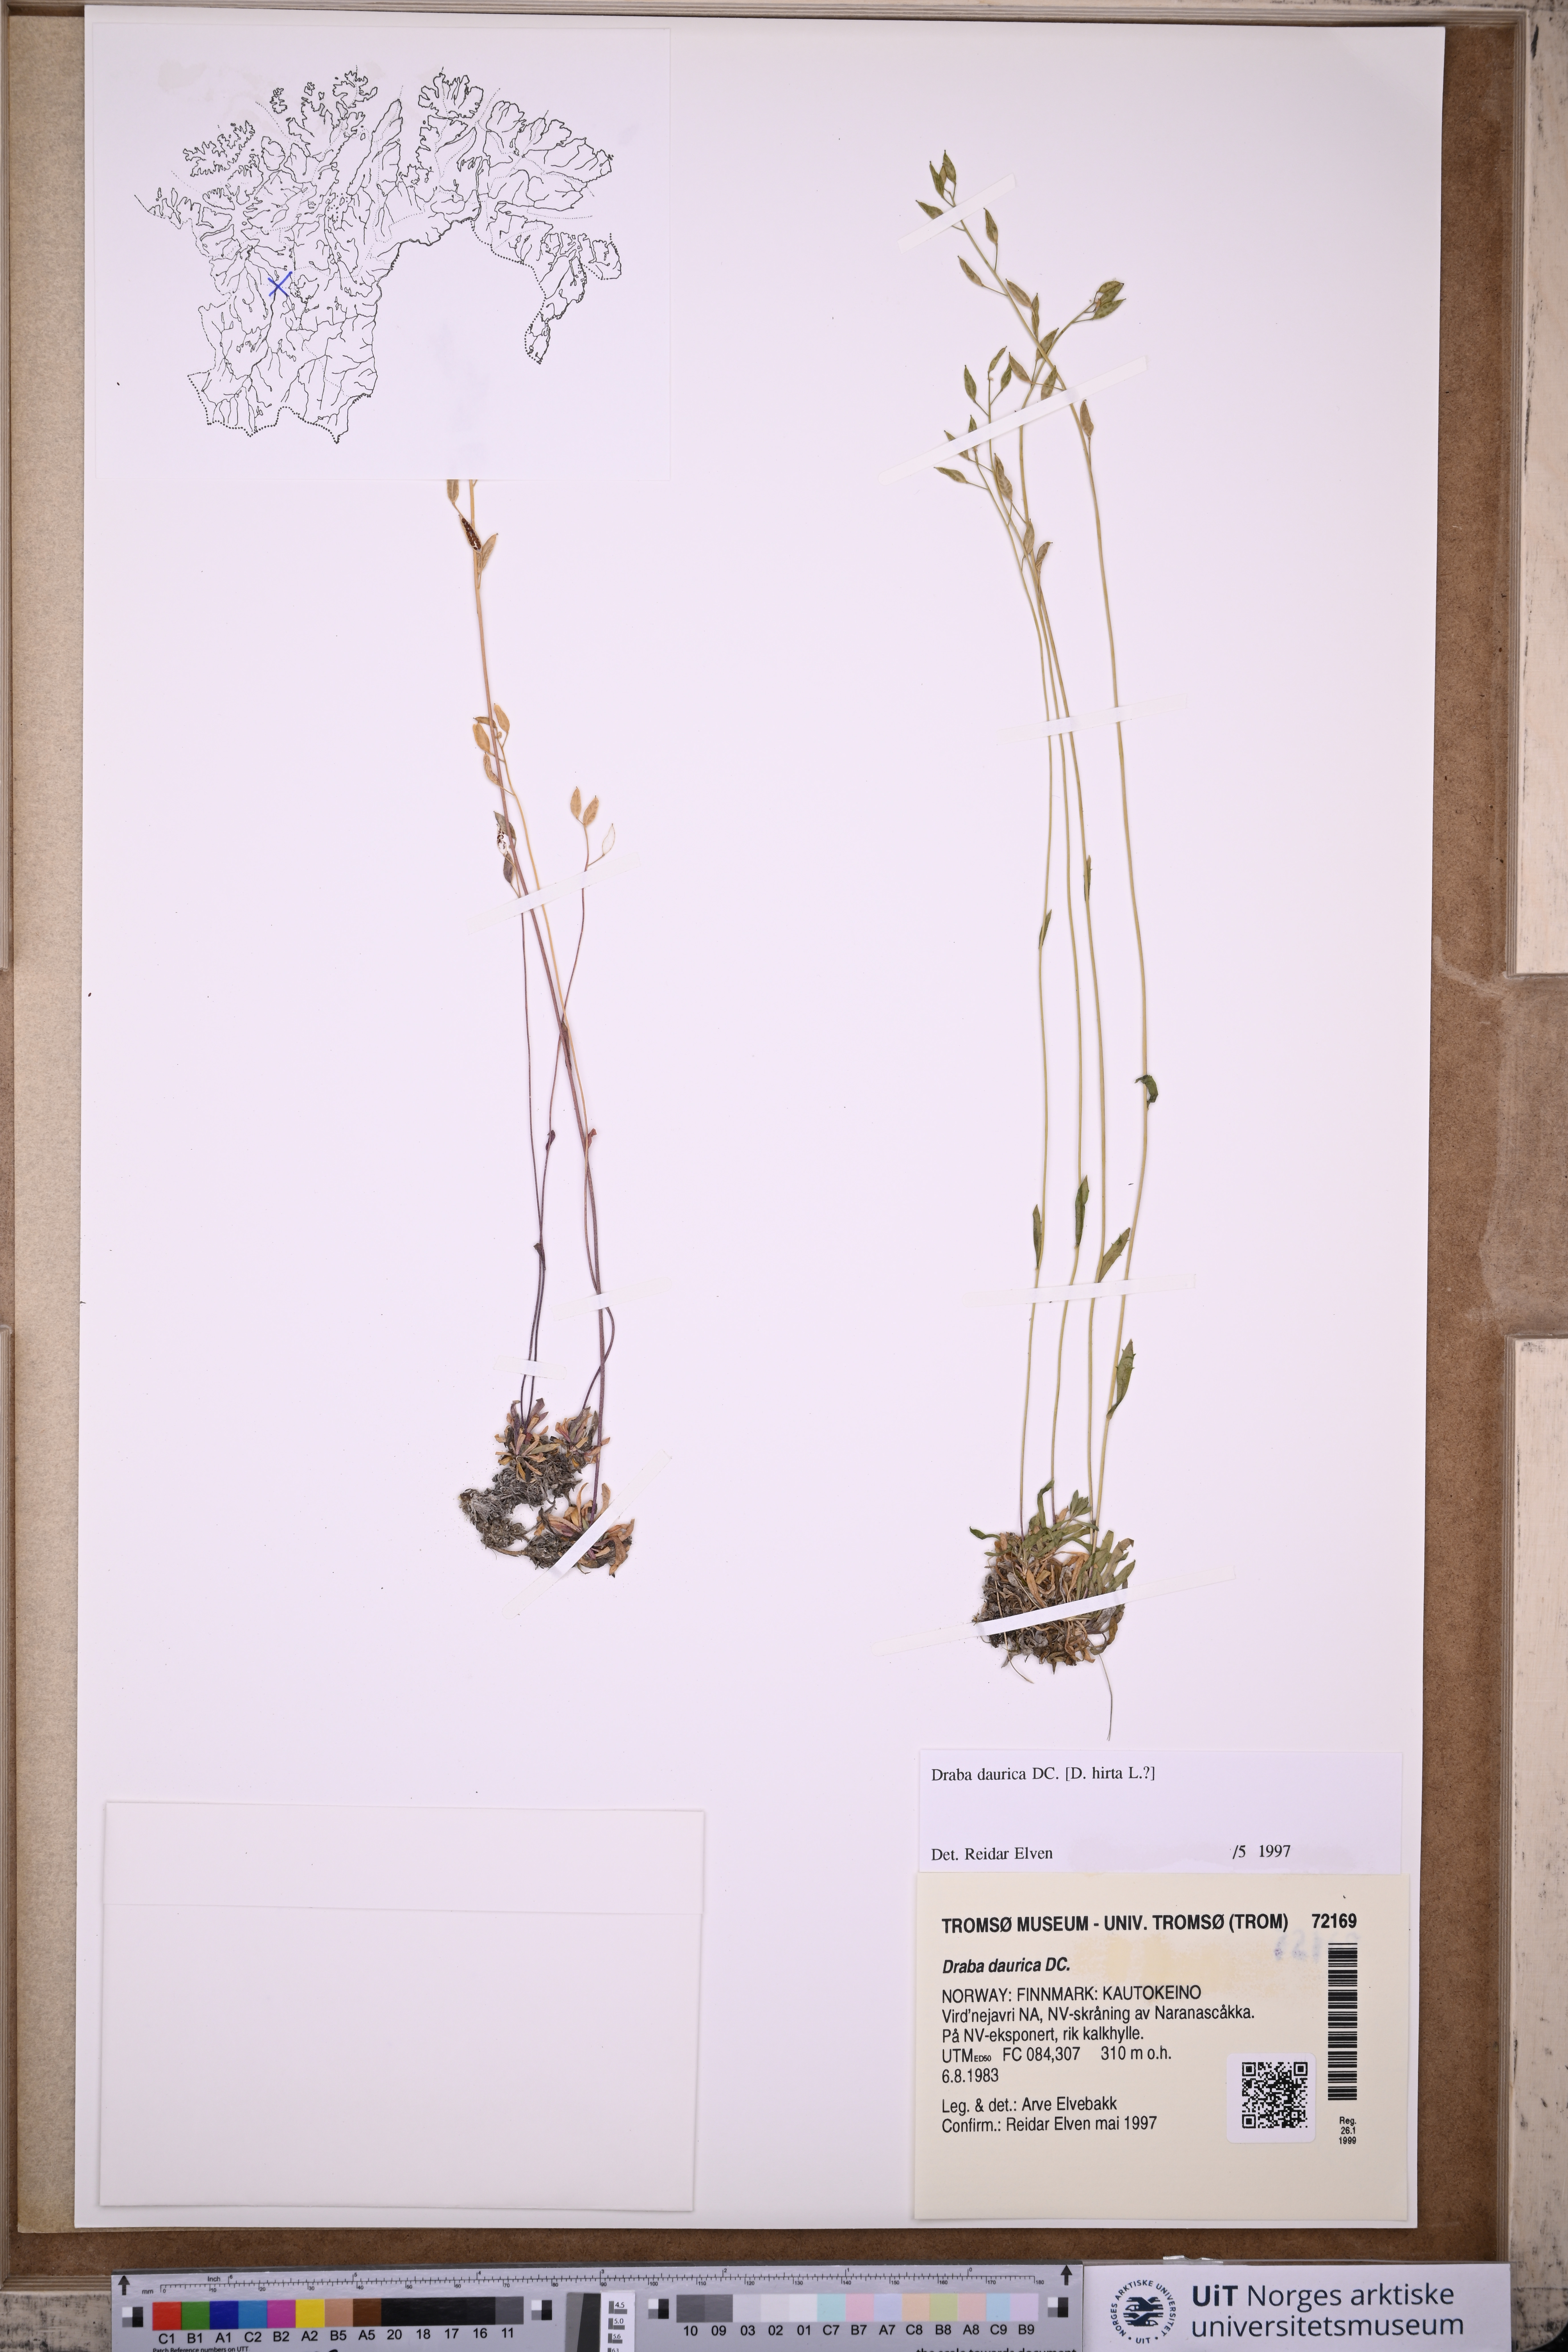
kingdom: Plantae
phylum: Tracheophyta
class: Magnoliopsida
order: Brassicales
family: Brassicaceae
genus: Draba
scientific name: Draba glabella
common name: Glaucous draba
